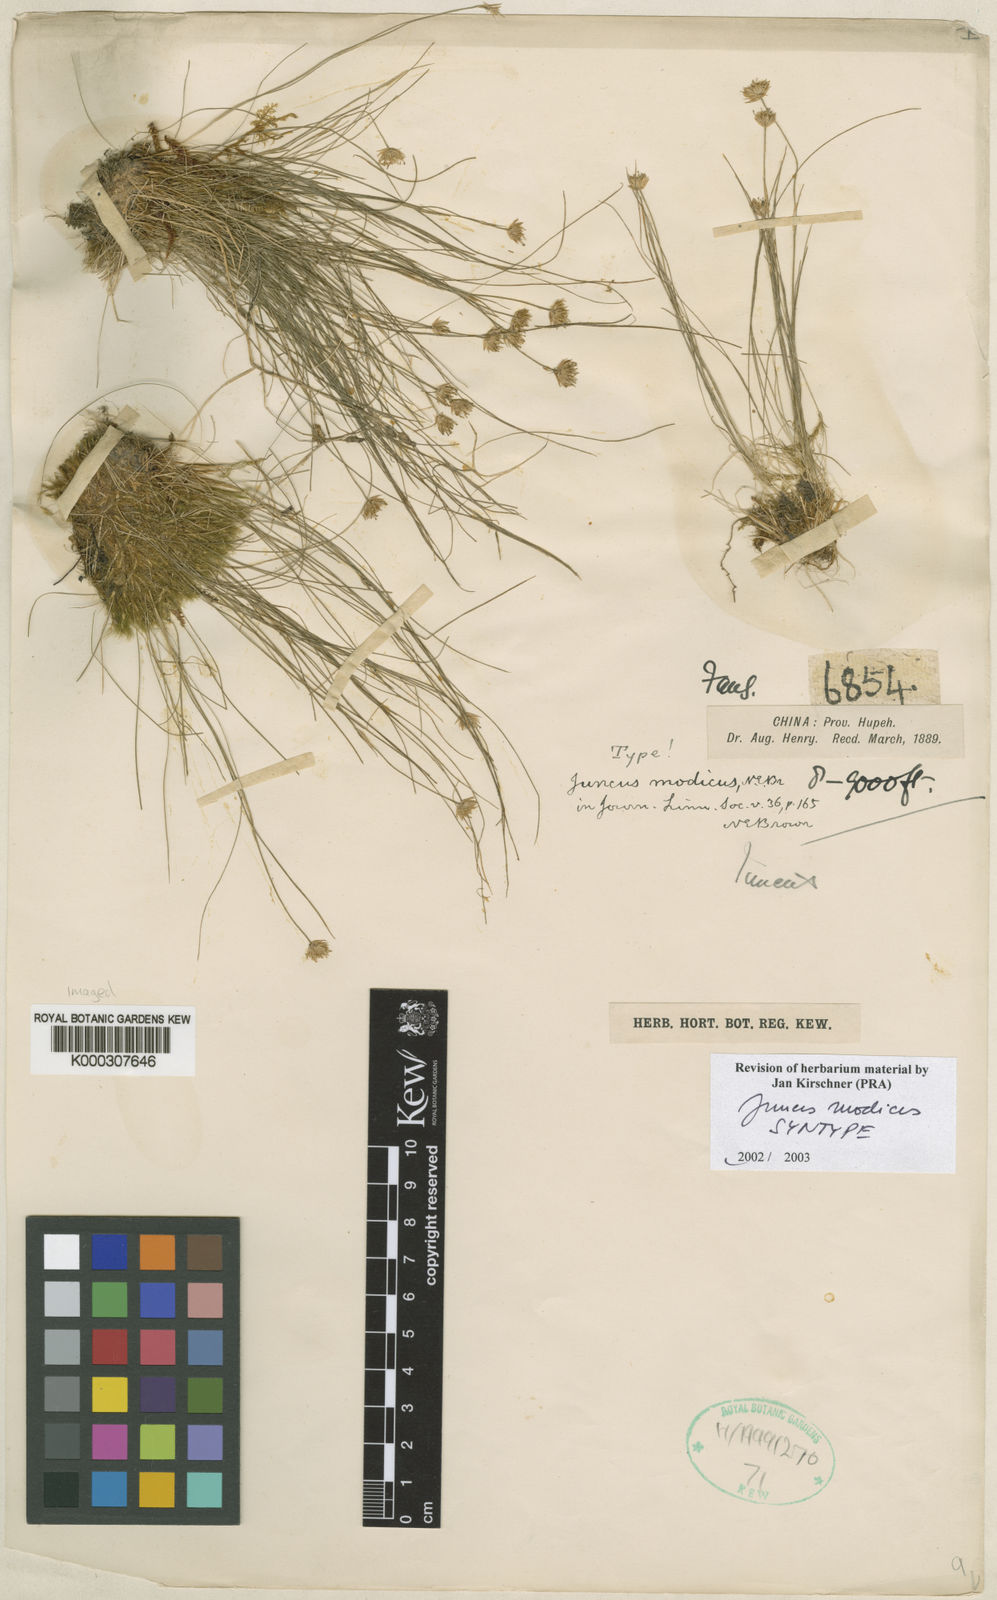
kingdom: Plantae
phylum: Tracheophyta
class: Liliopsida
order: Poales
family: Juncaceae
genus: Juncus
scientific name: Juncus modicus
